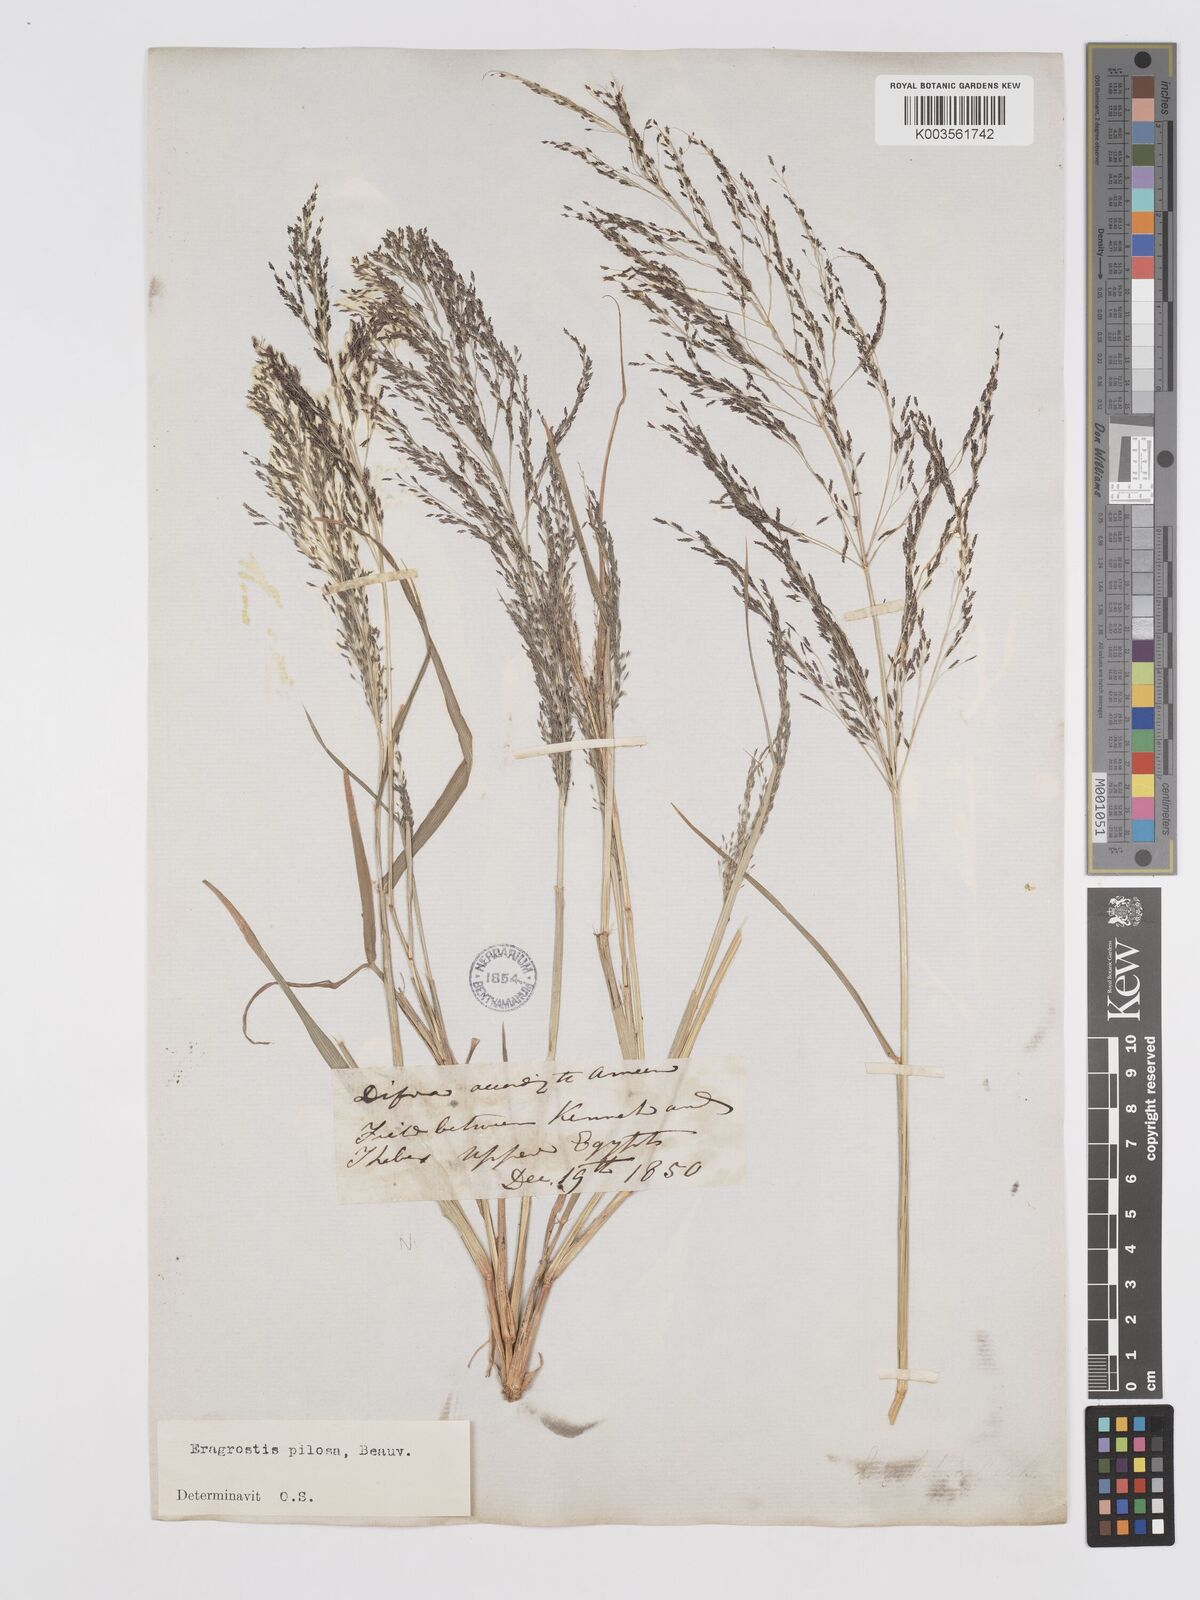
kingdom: Plantae
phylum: Tracheophyta
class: Liliopsida
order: Poales
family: Poaceae
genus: Eragrostis
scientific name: Eragrostis pilosa
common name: Indian lovegrass
